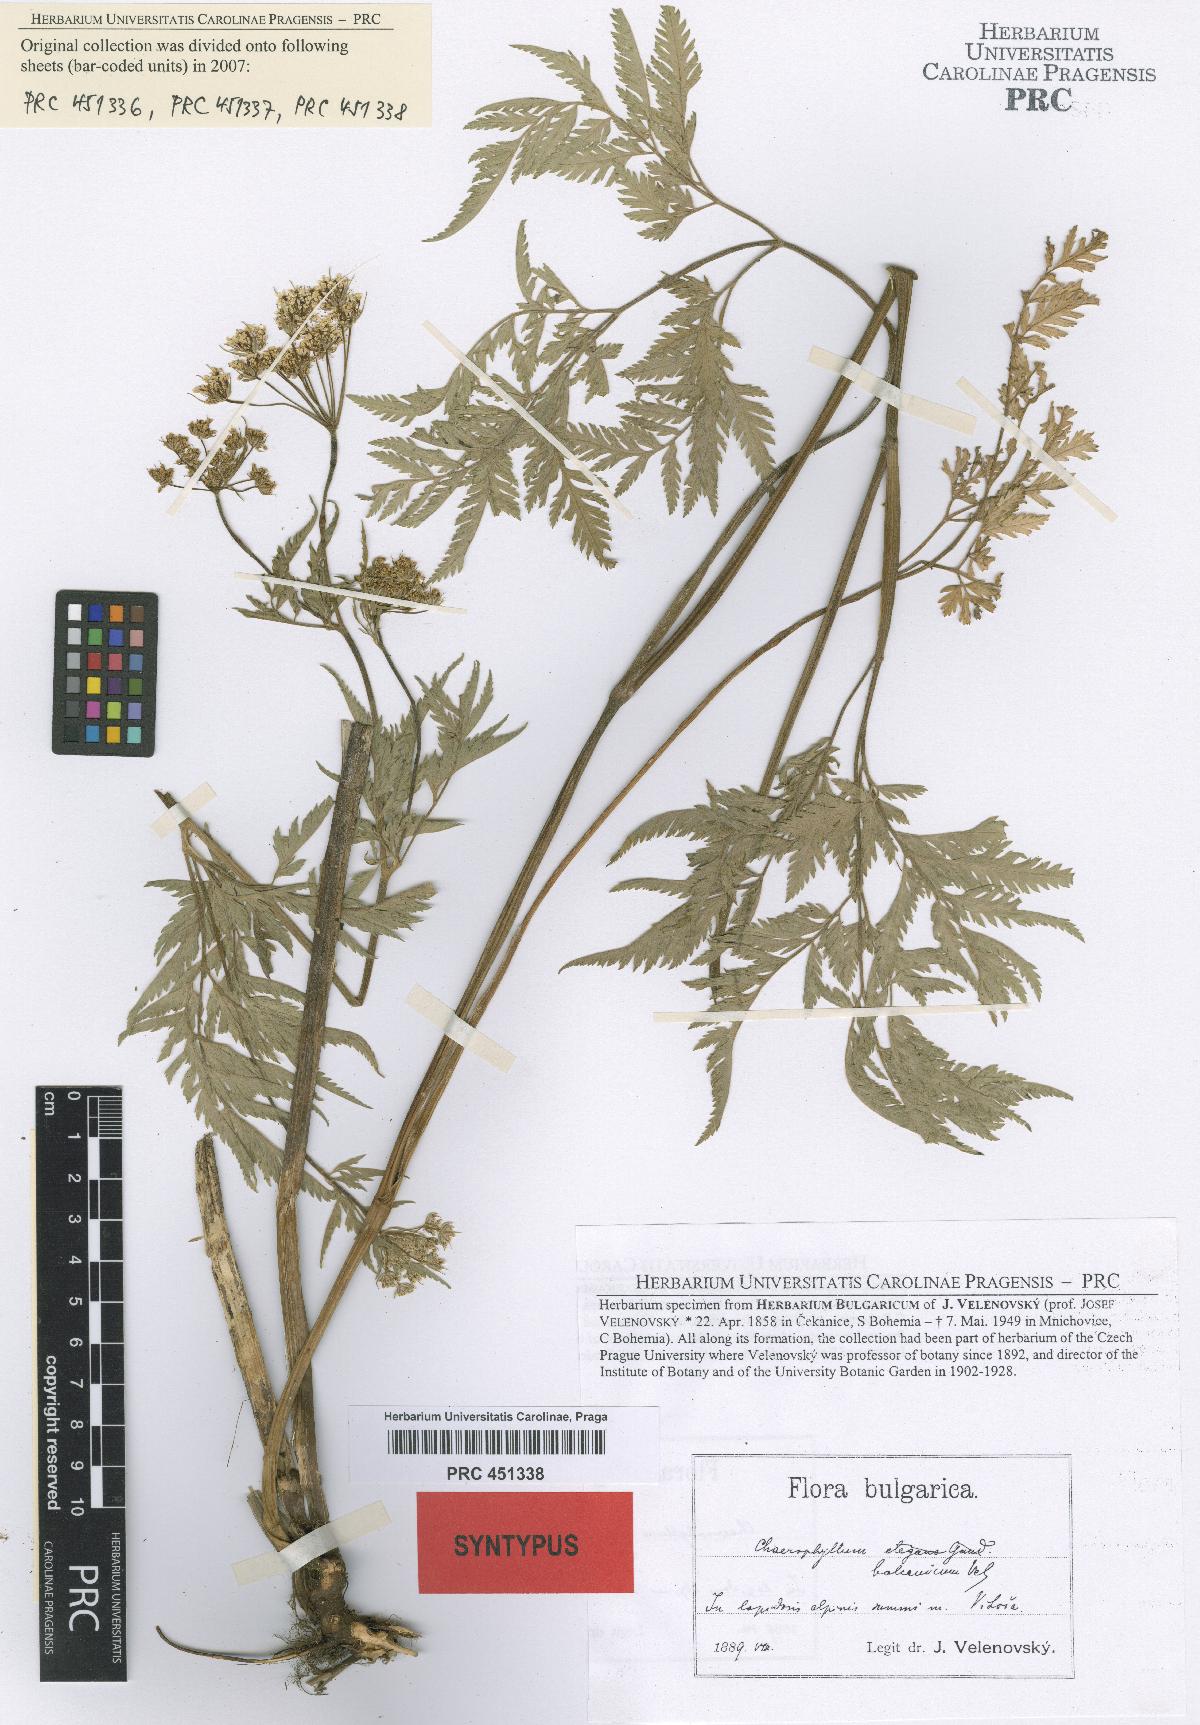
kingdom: Plantae
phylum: Tracheophyta
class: Magnoliopsida
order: Apiales
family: Apiaceae
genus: Geocaryum
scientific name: Geocaryum capillifolium
